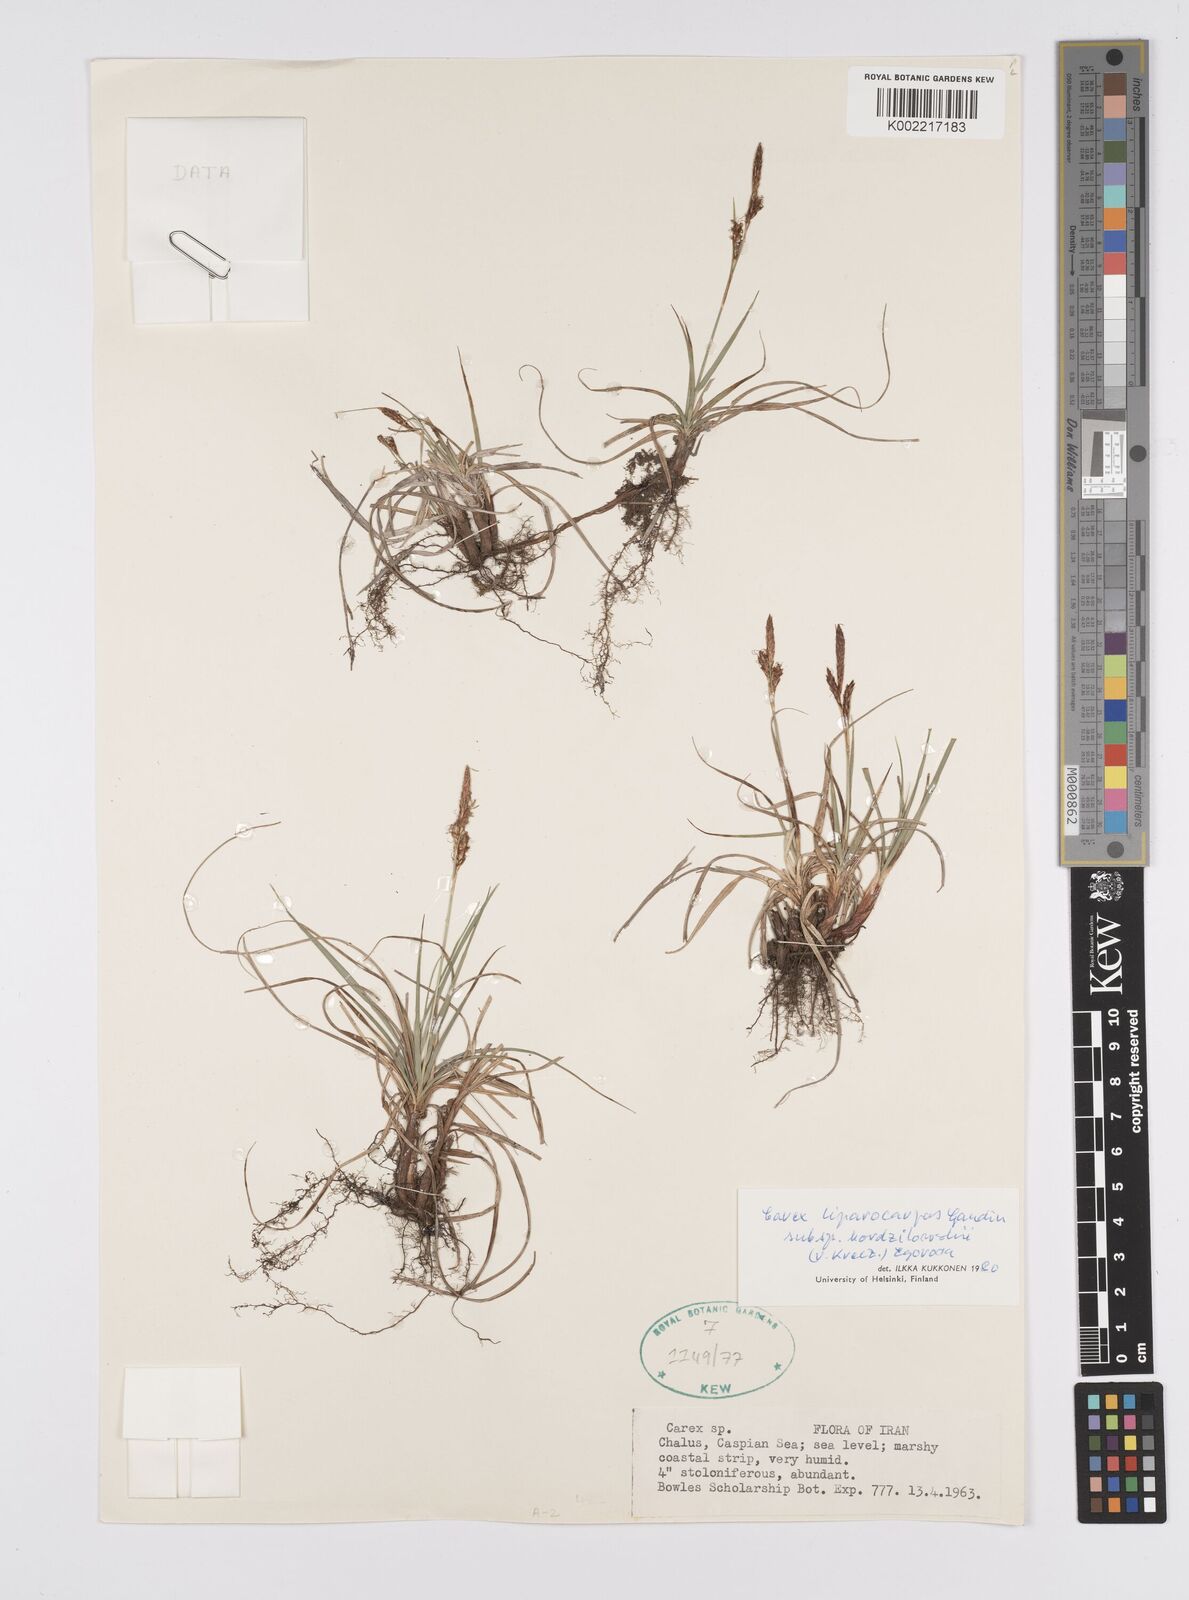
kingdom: Plantae
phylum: Tracheophyta
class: Liliopsida
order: Poales
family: Cyperaceae
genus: Carex
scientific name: Carex liparocarpos
